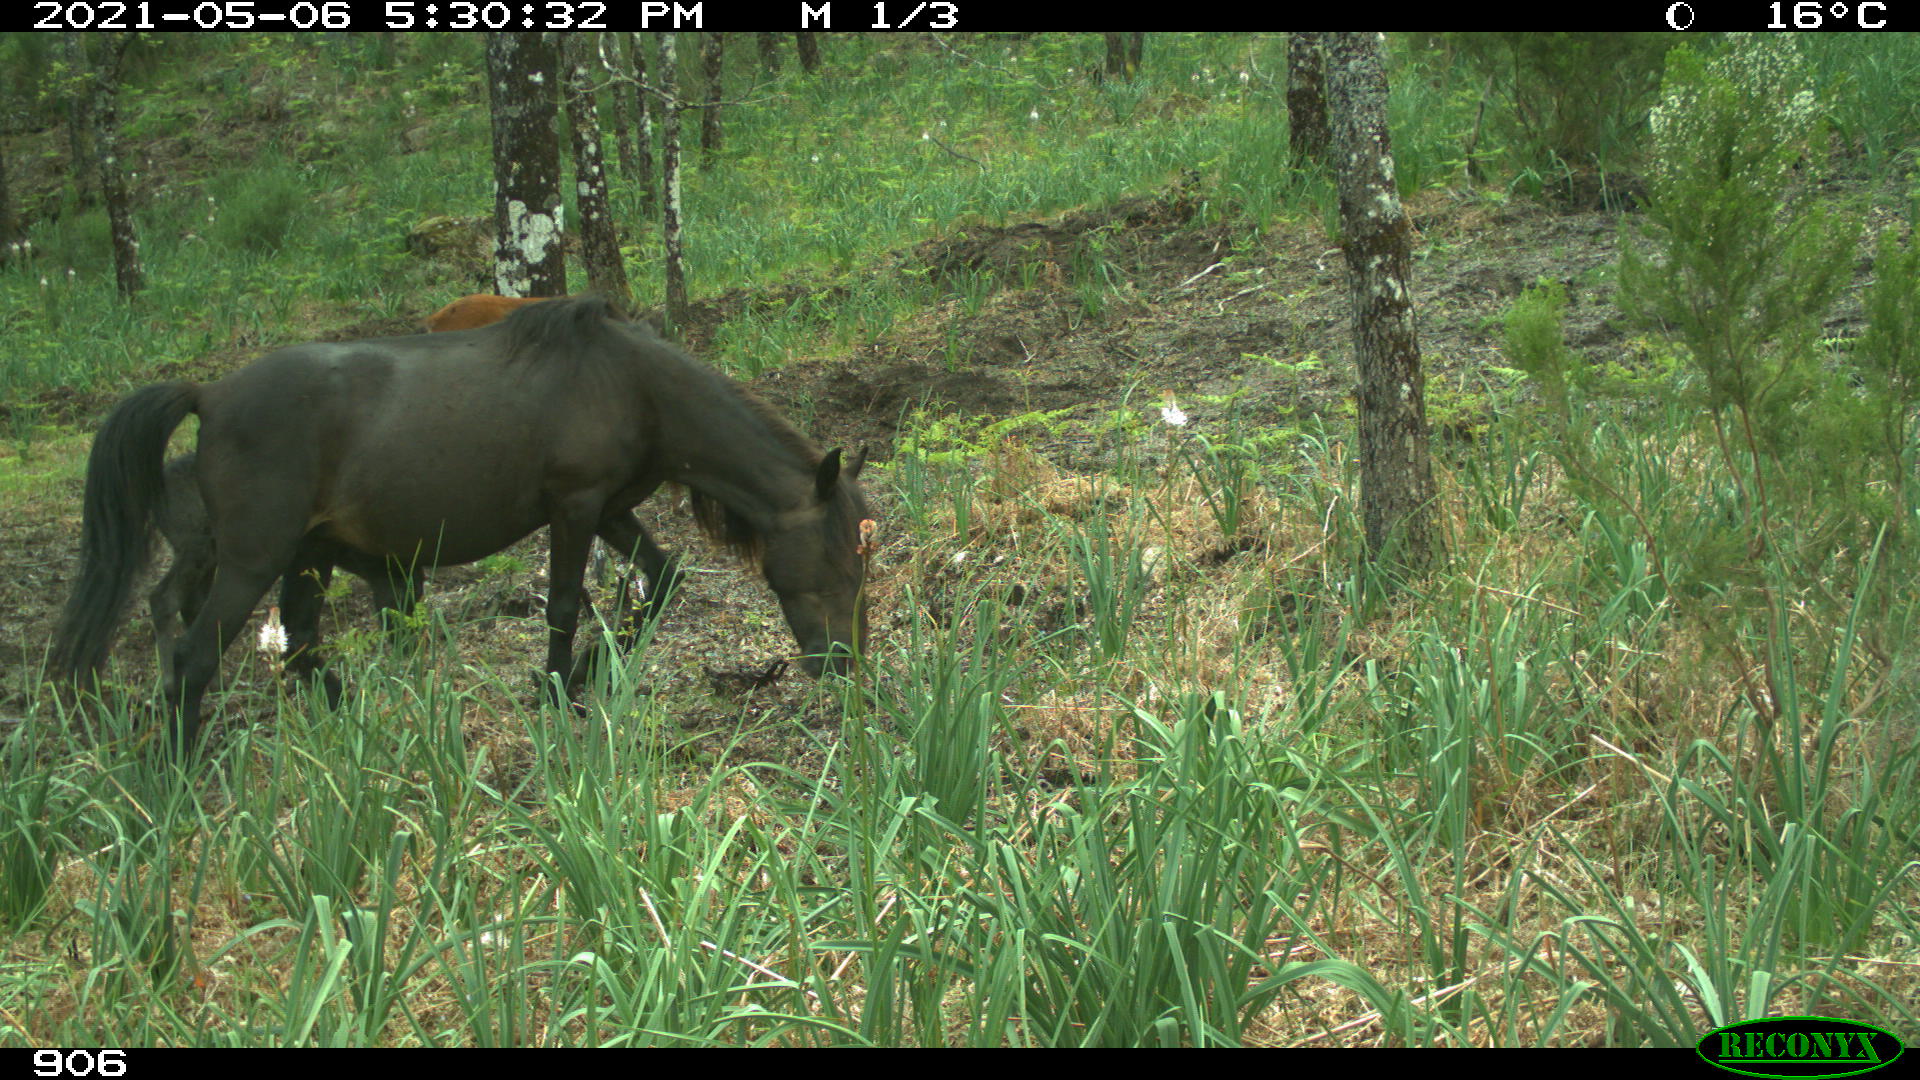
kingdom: Animalia
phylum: Chordata
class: Mammalia
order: Perissodactyla
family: Equidae
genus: Equus
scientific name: Equus caballus
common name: Horse
